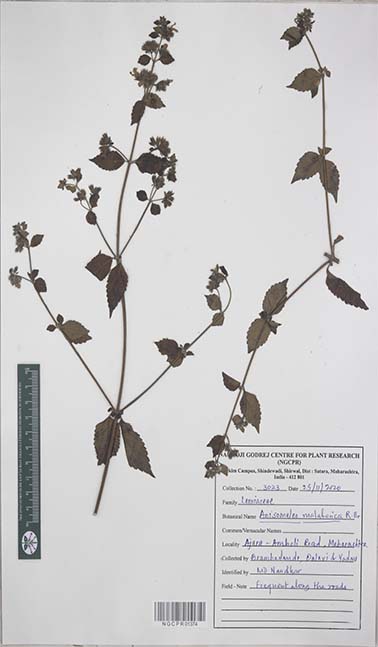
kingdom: Plantae
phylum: Tracheophyta
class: Magnoliopsida
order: Lamiales
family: Lamiaceae
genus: Anisomeles
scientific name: Anisomeles malabarica
